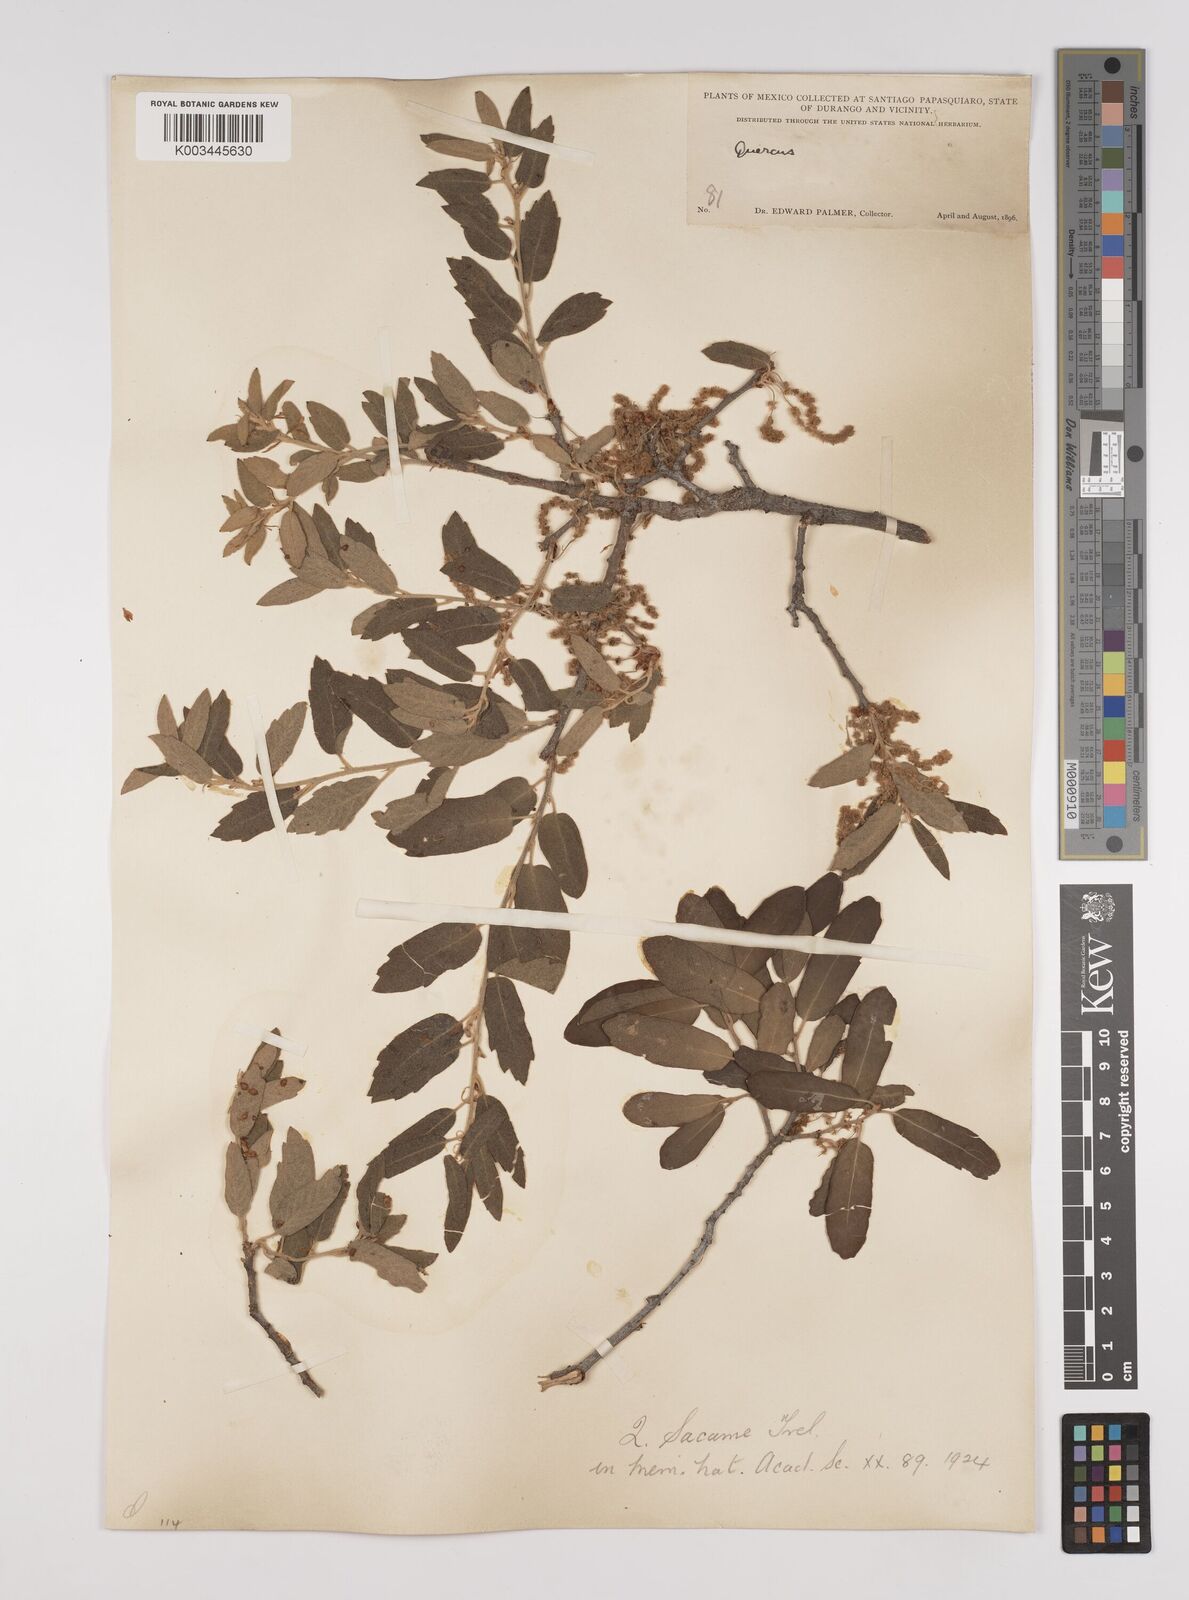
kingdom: Plantae
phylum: Tracheophyta
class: Magnoliopsida
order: Fagales
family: Fagaceae
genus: Quercus
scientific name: Quercus arizonica
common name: Arizona white oak
